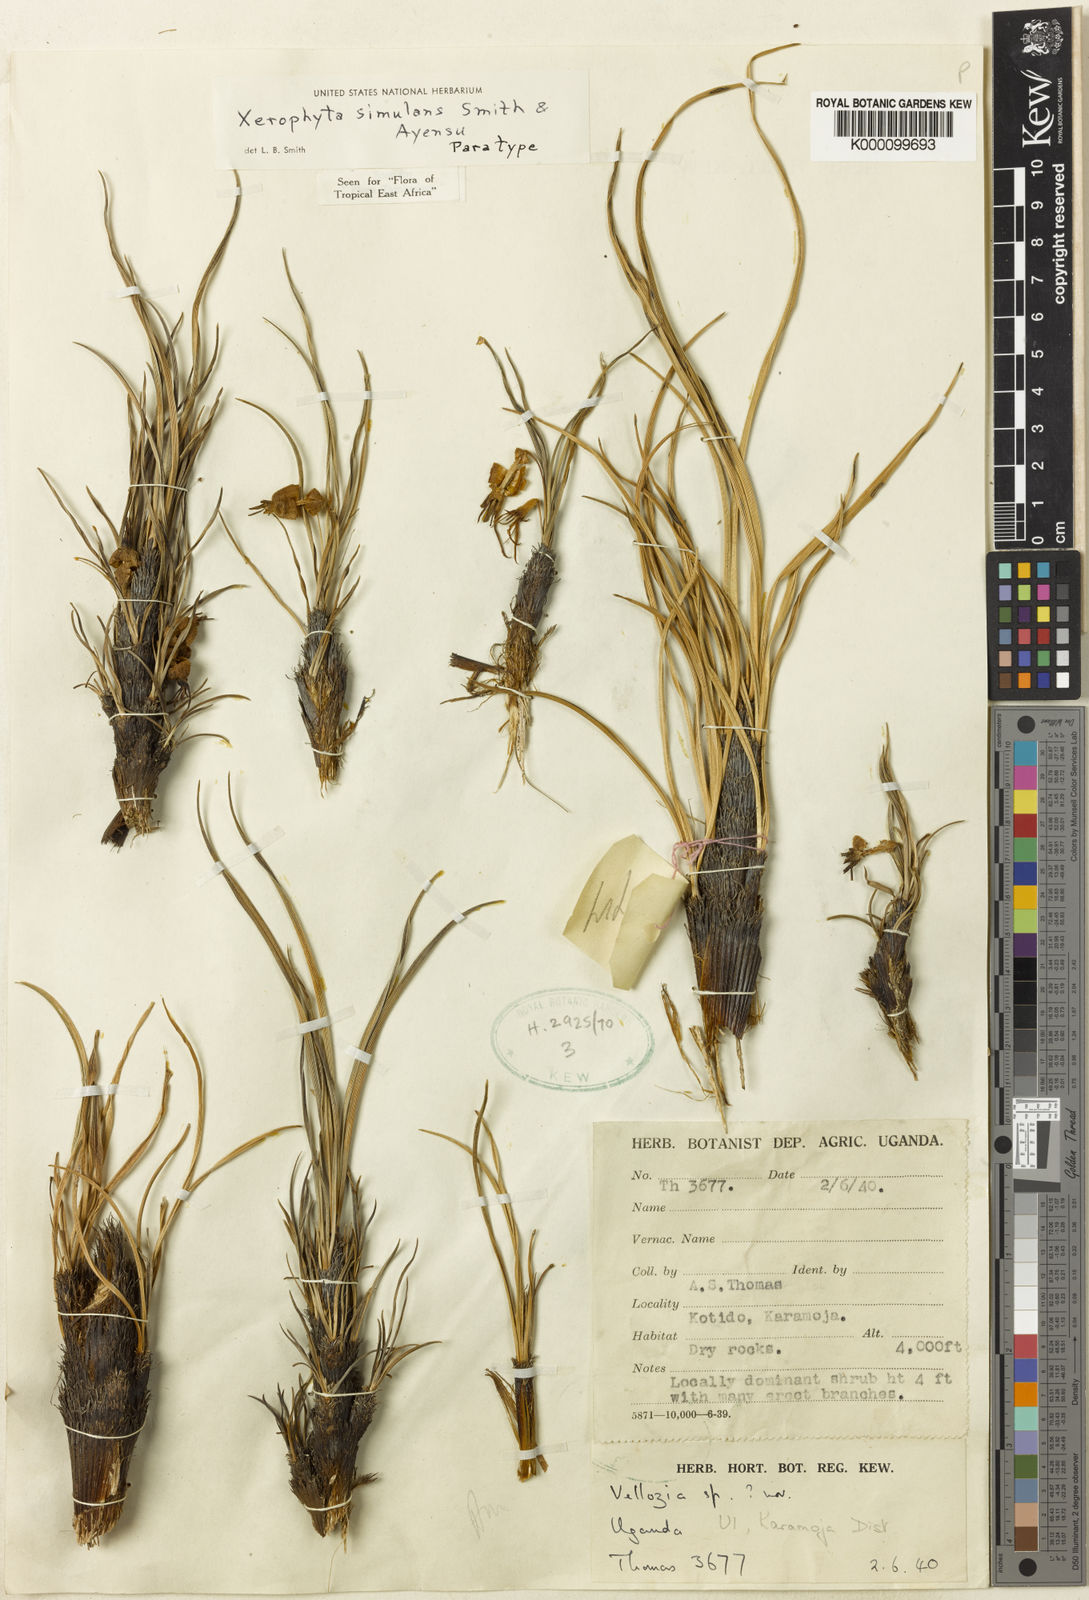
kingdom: Plantae
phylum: Tracheophyta
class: Liliopsida
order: Pandanales
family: Velloziaceae
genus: Xerophyta
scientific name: Xerophyta simulans
